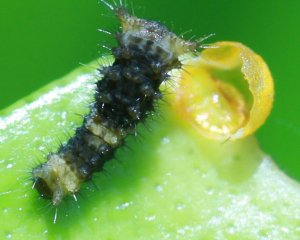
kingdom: Animalia
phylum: Arthropoda
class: Insecta
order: Lepidoptera
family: Papilionidae
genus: Papilio
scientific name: Papilio cresphontes
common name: Eastern Giant Swallowtail
